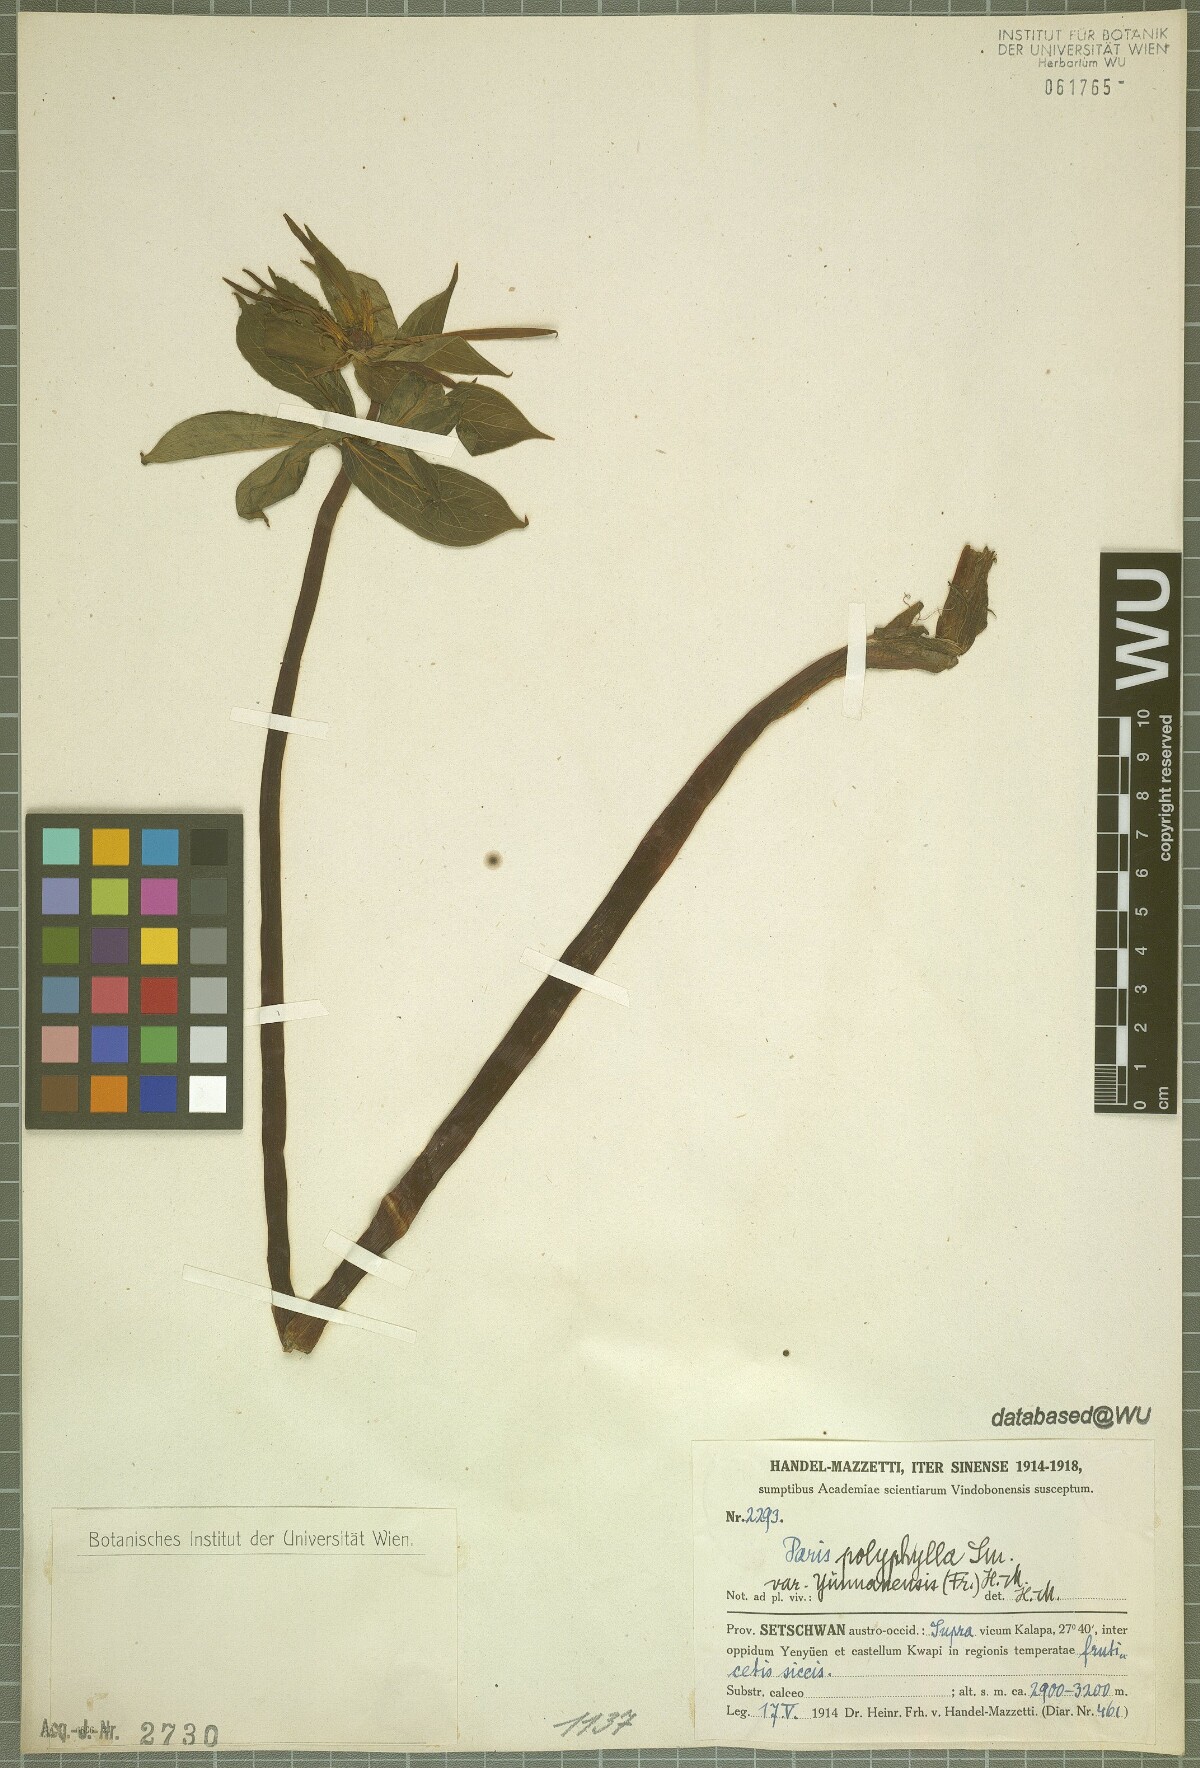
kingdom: Plantae
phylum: Tracheophyta
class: Liliopsida
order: Liliales
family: Melanthiaceae
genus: Paris
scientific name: Paris yunnanensis
